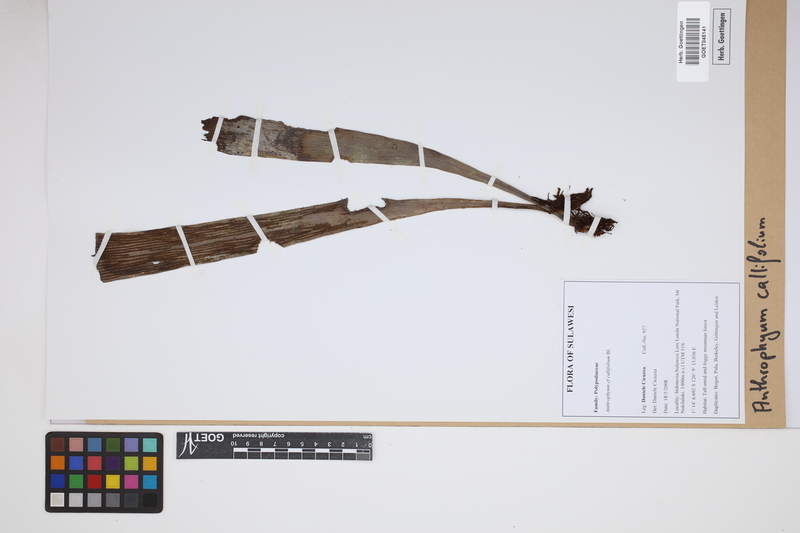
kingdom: Plantae
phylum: Tracheophyta
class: Polypodiopsida
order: Polypodiales
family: Pteridaceae
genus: Antrophyum
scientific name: Antrophyum callifolium
